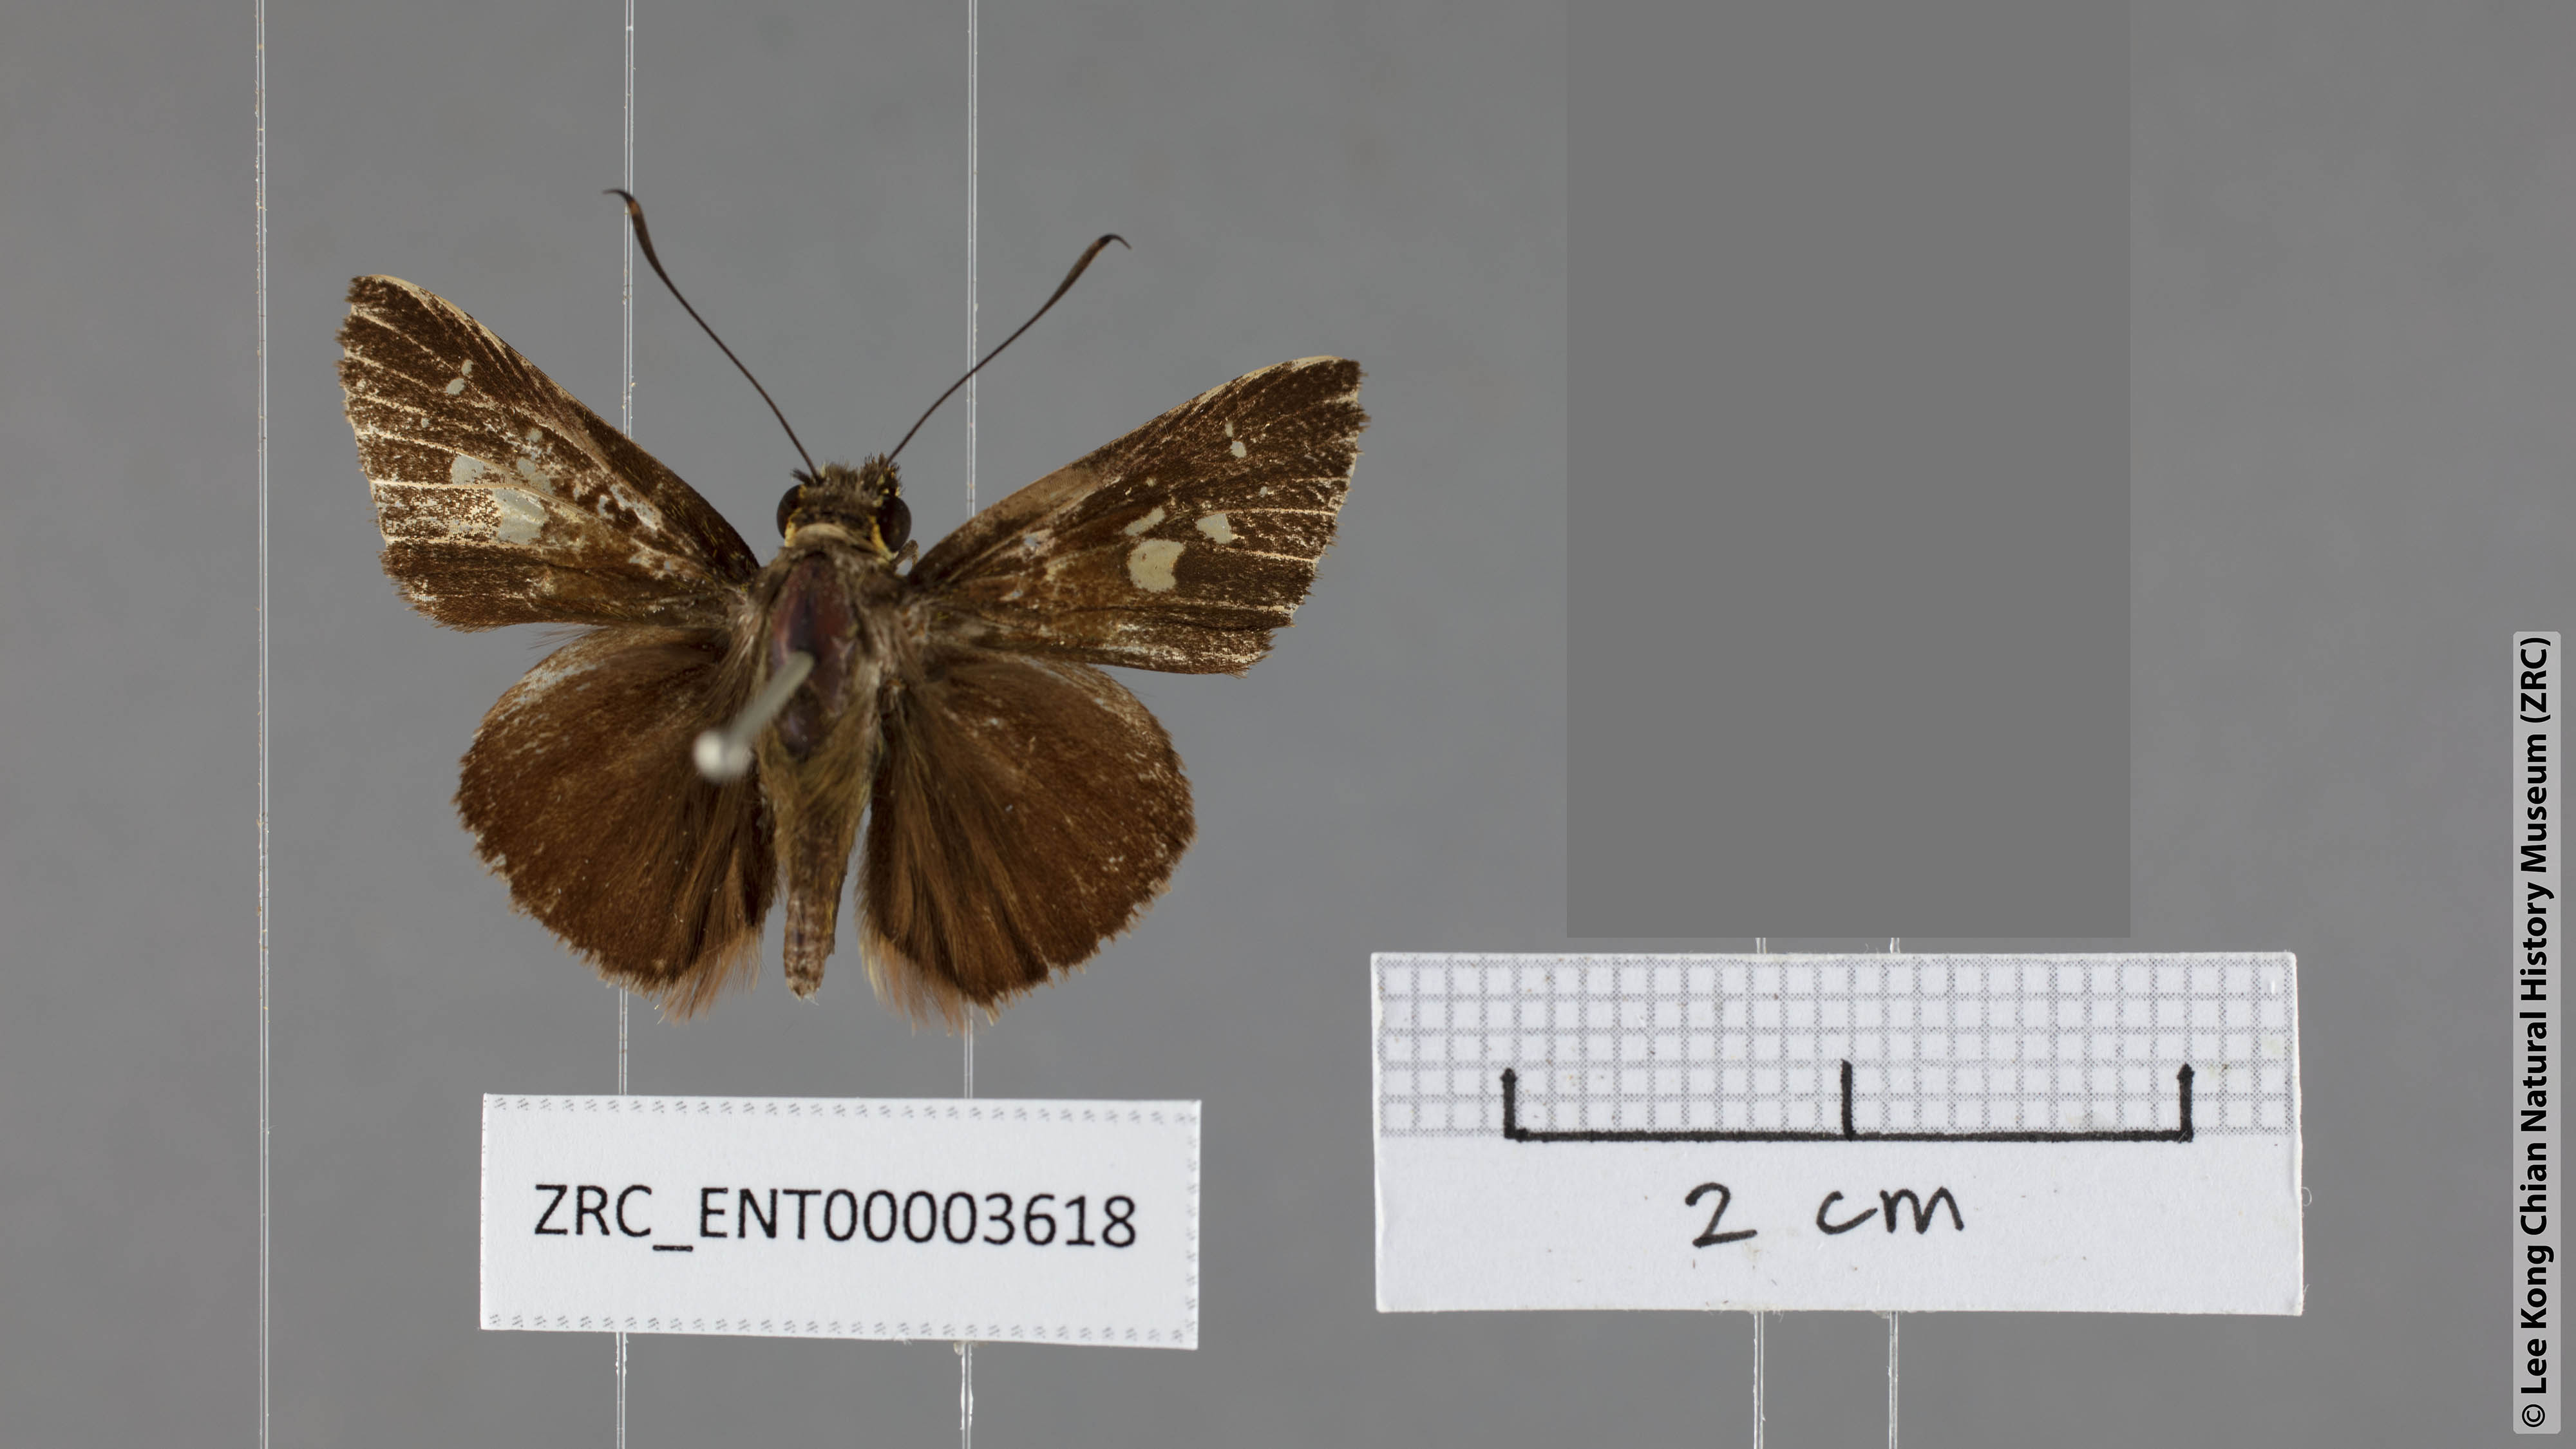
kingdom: Animalia
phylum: Arthropoda
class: Insecta
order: Lepidoptera
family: Hesperiidae
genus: Zographetus
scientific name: Zographetus rama
